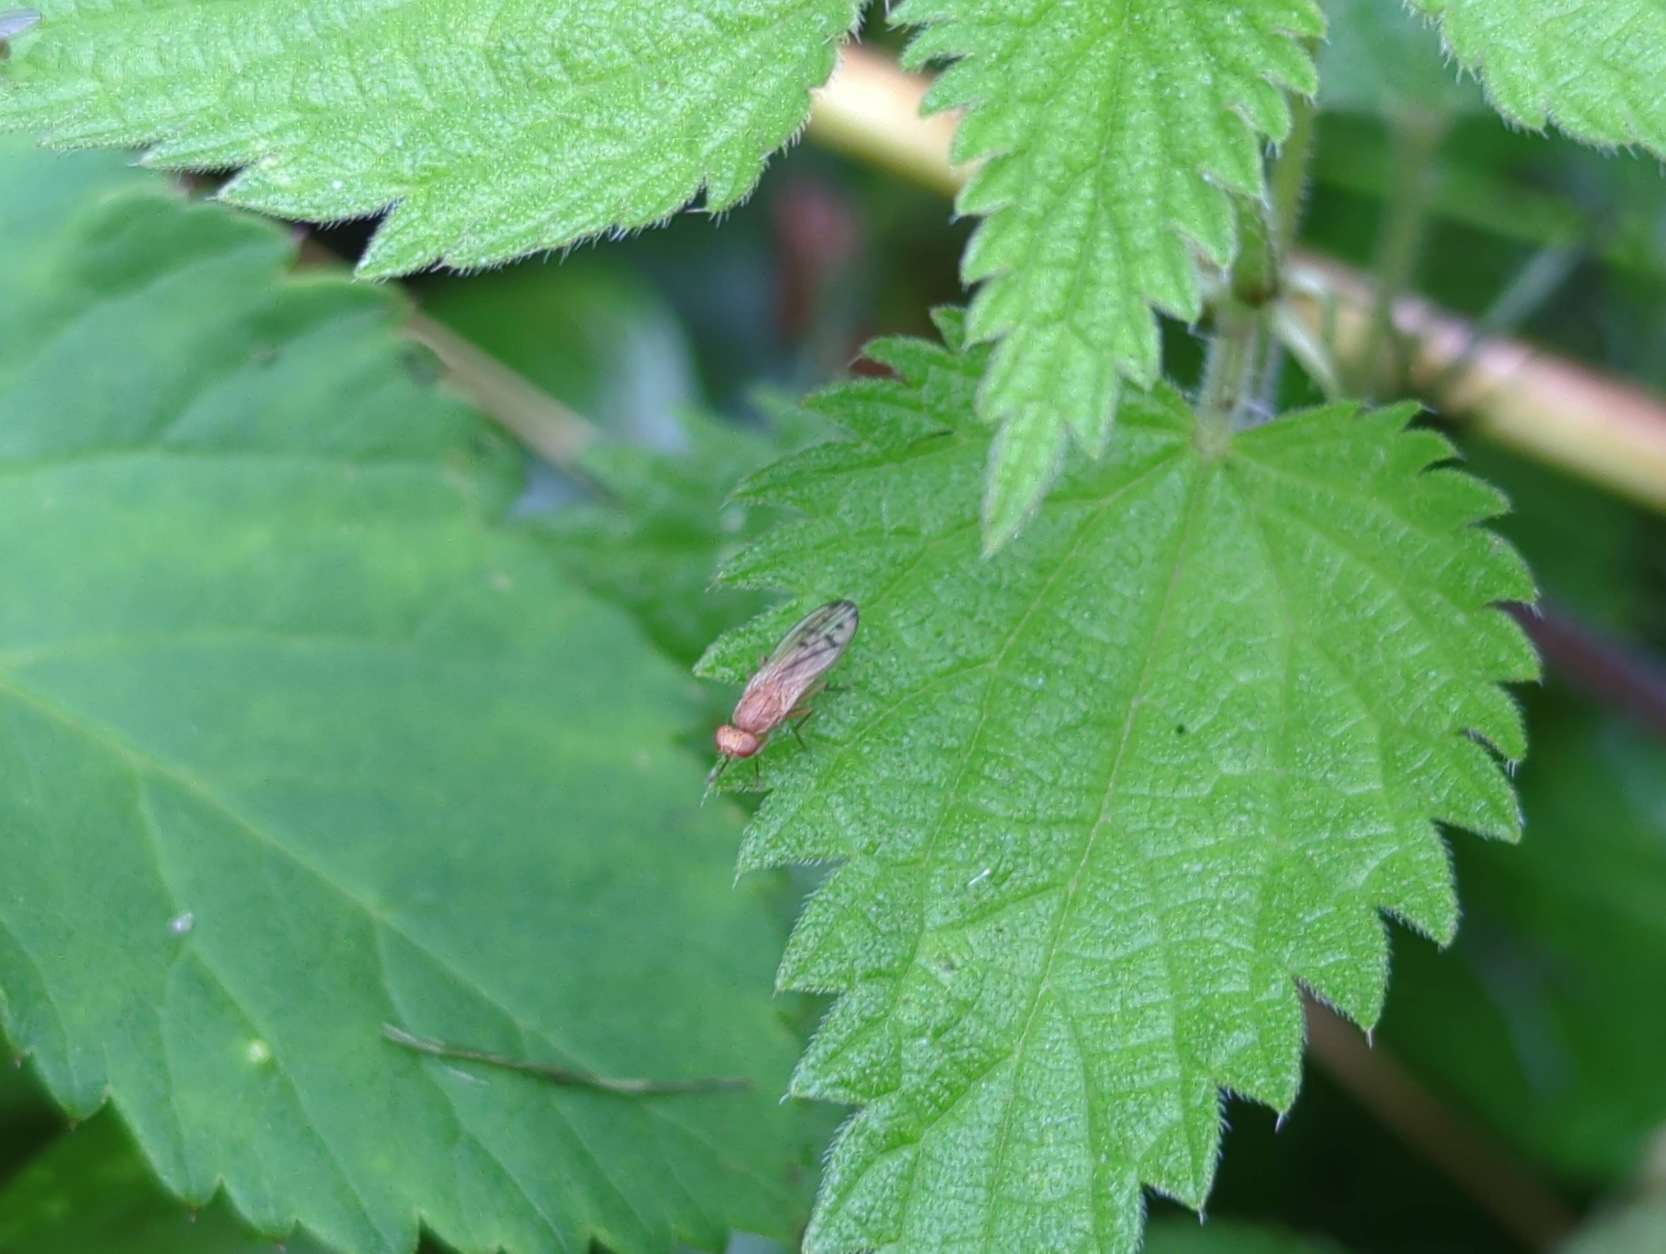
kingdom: Animalia
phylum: Arthropoda
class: Insecta
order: Diptera
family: Opomyzidae
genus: Opomyza
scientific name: Opomyza florum
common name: Gul græsflue
